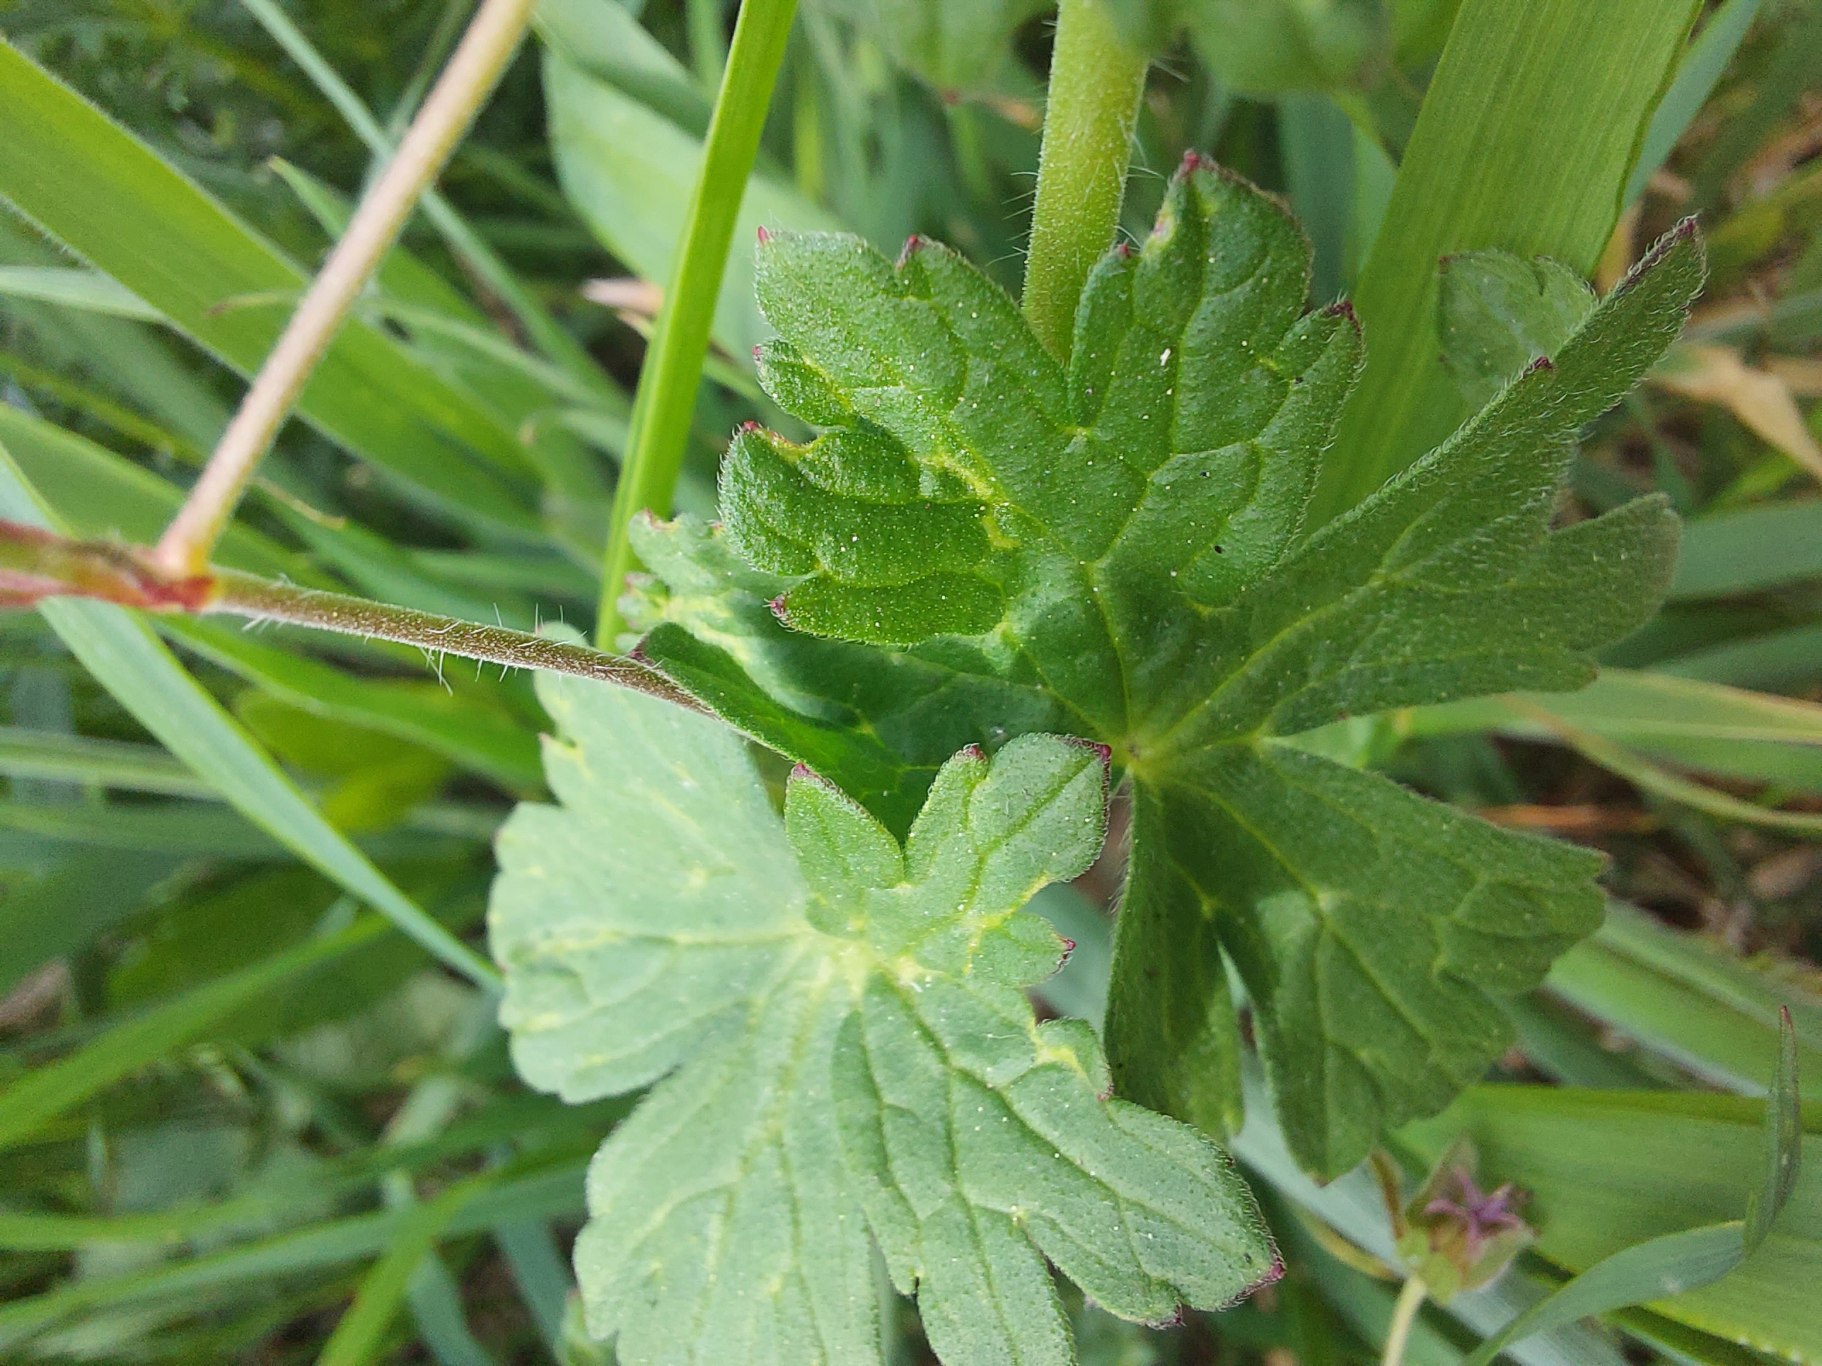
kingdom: Plantae
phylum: Tracheophyta
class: Magnoliopsida
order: Geraniales
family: Geraniaceae
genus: Geranium
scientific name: Geranium pyrenaicum
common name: Pyrenæisk storkenæb
